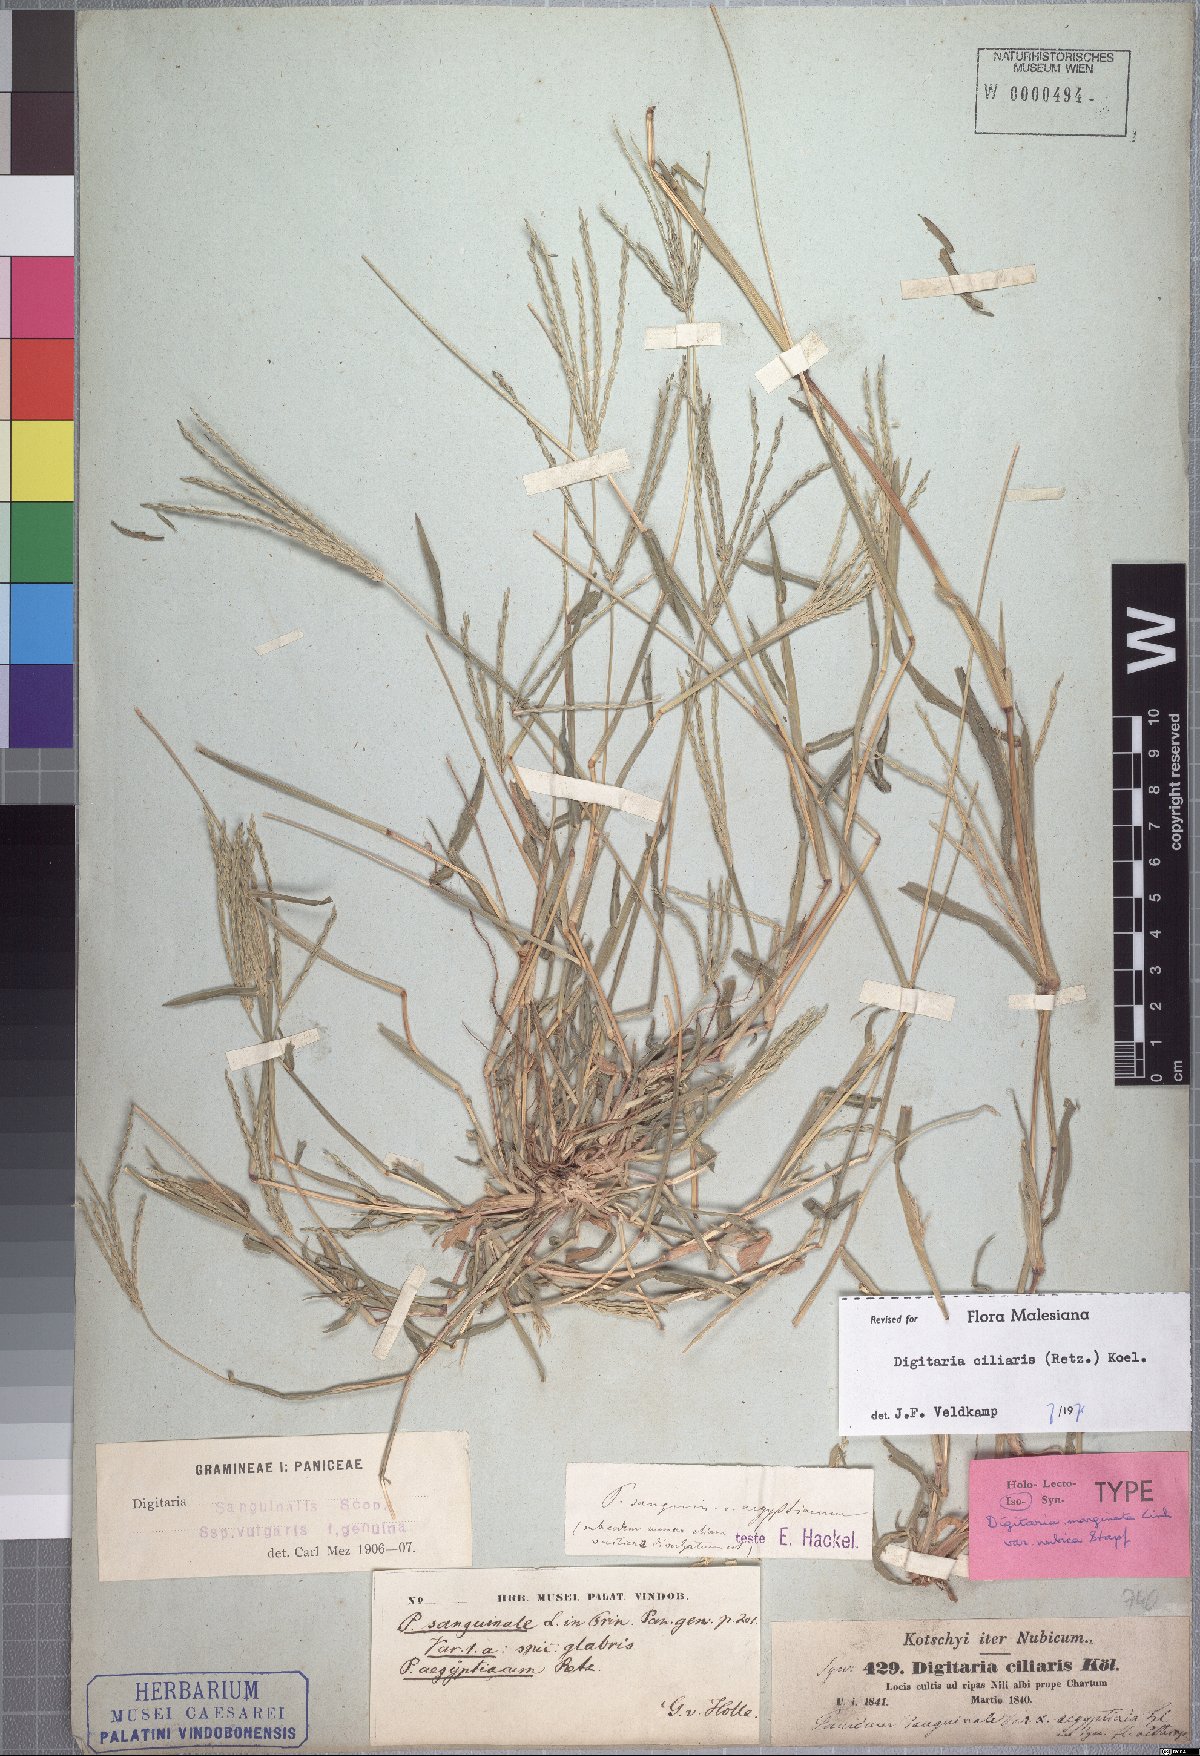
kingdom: Plantae
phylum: Tracheophyta
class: Liliopsida
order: Poales
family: Poaceae
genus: Digitaria
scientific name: Digitaria ciliaris
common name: Tropical finger-grass
